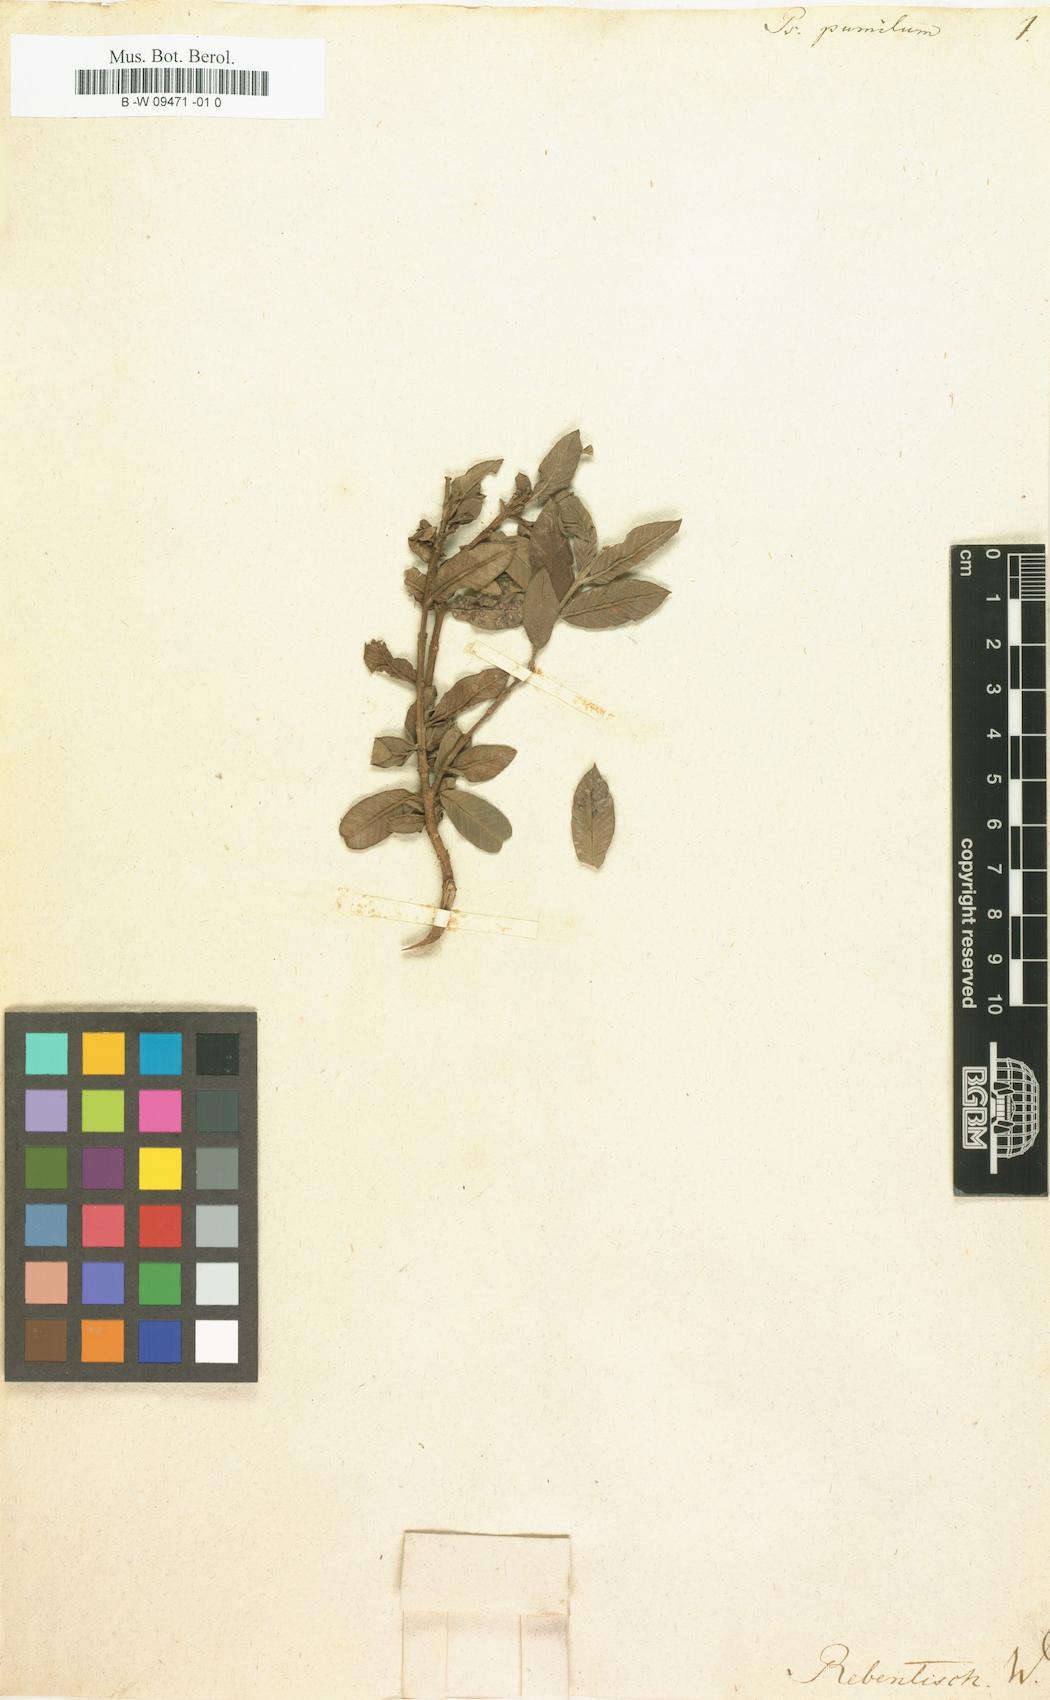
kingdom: Plantae
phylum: Tracheophyta
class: Magnoliopsida
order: Myrtales
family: Myrtaceae
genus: Psidium
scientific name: Psidium guajava
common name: Guava
